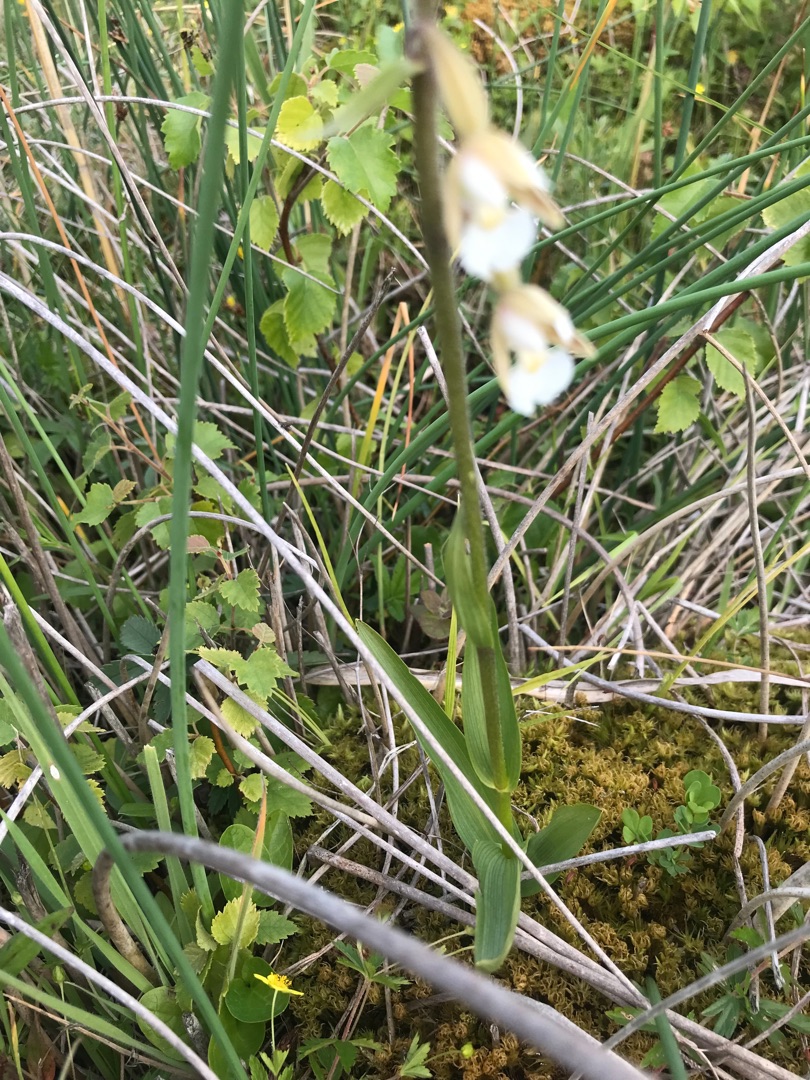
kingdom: Plantae
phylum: Tracheophyta
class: Liliopsida
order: Asparagales
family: Orchidaceae
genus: Epipactis
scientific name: Epipactis palustris
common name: Sump-hullæbe
